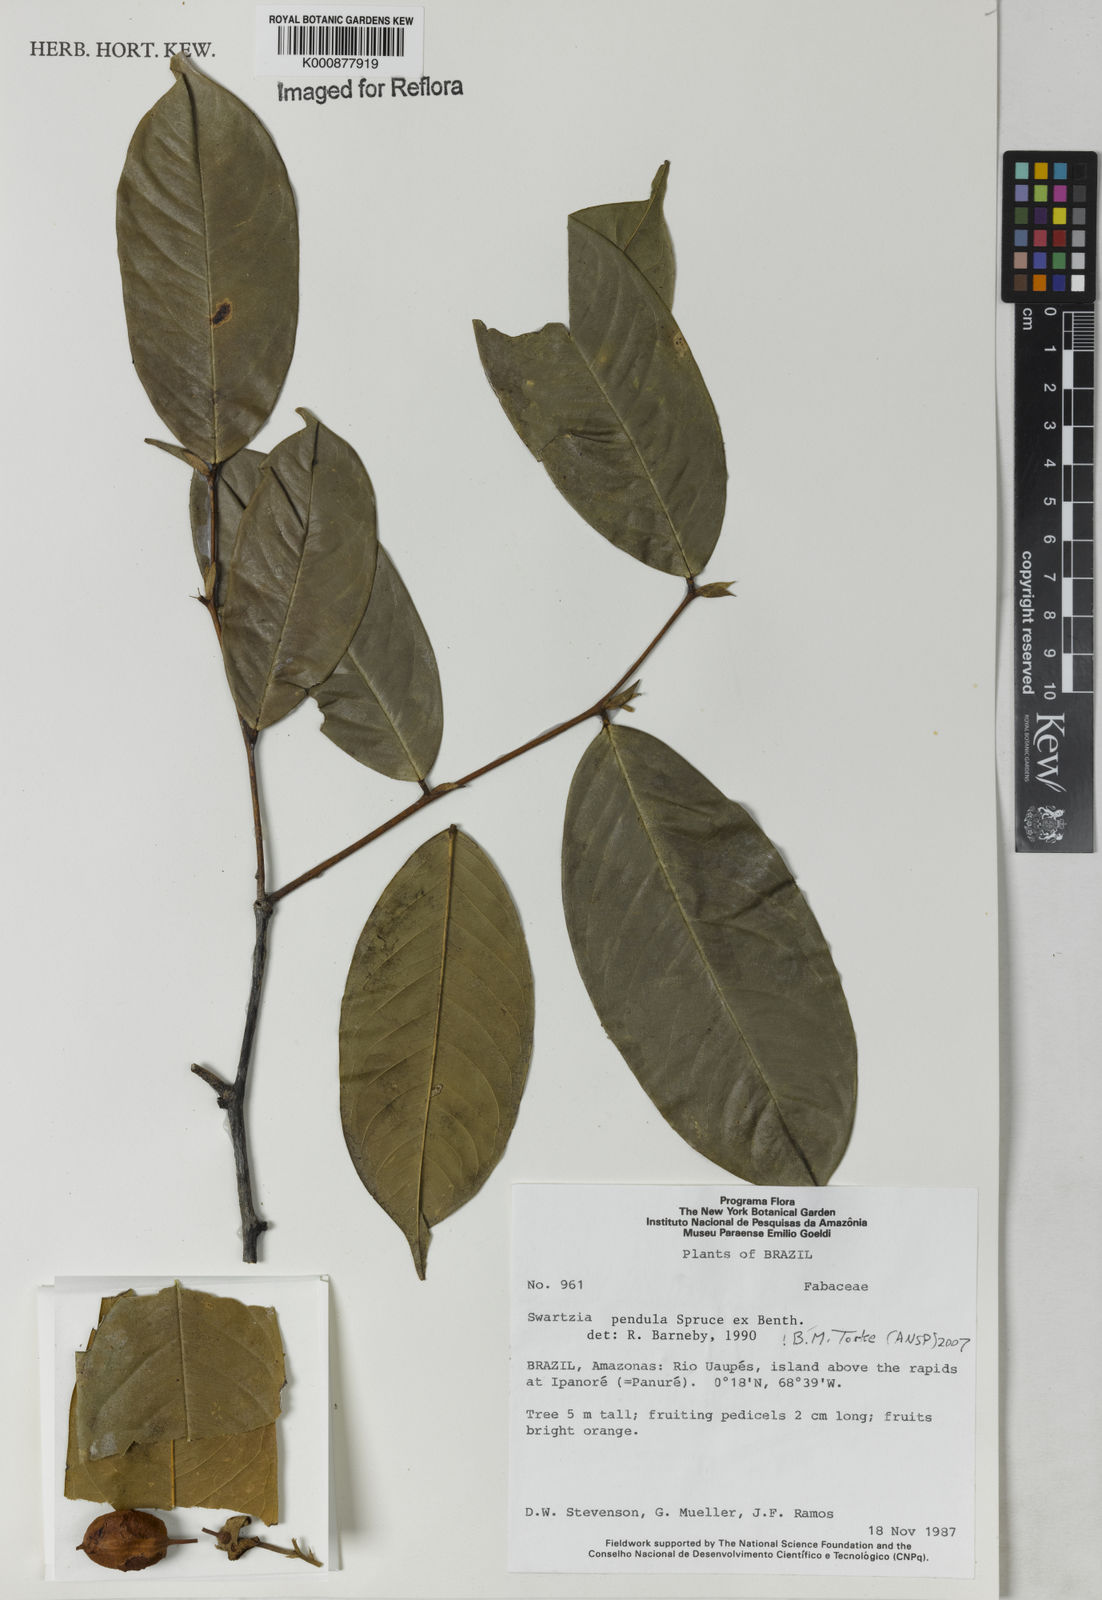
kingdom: Plantae
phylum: Tracheophyta
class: Magnoliopsida
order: Fabales
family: Fabaceae
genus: Swartzia
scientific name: Swartzia pendula
